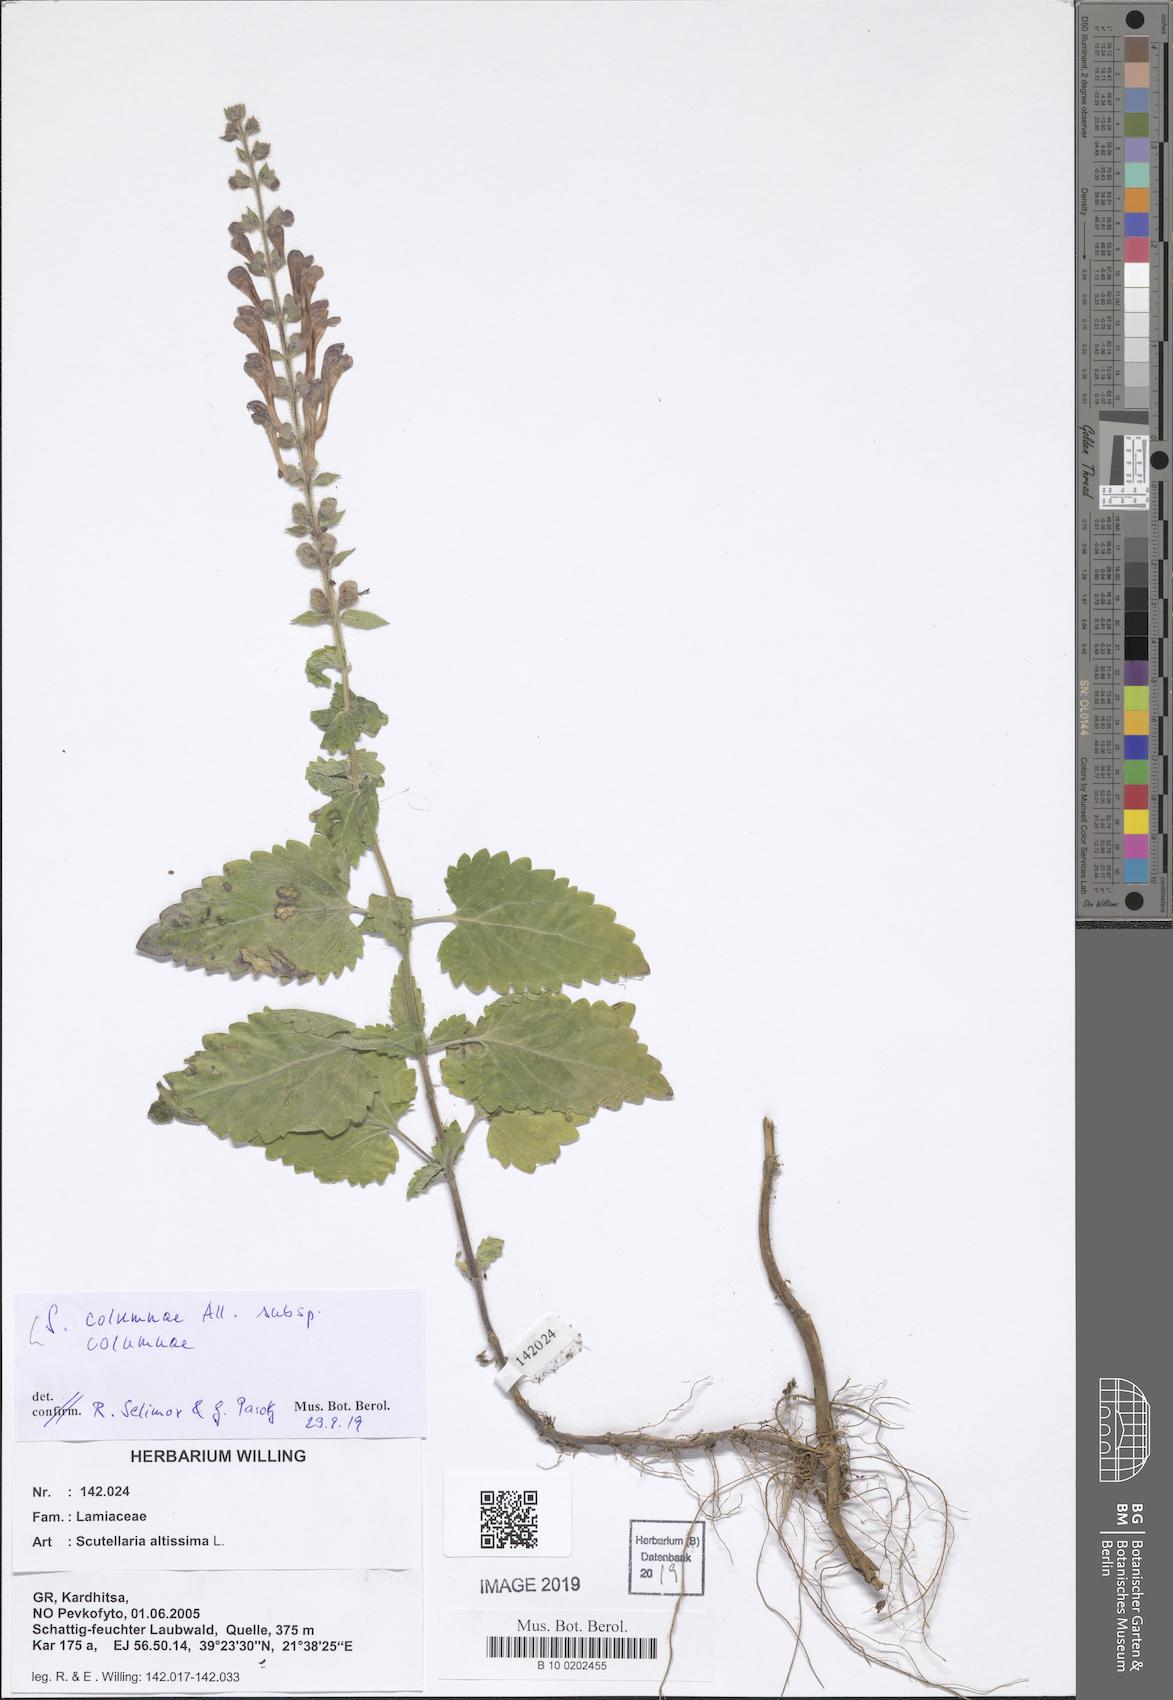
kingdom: Plantae
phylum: Tracheophyta
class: Magnoliopsida
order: Lamiales
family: Lamiaceae
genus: Scutellaria
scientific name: Scutellaria columnae
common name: Large skullcap
